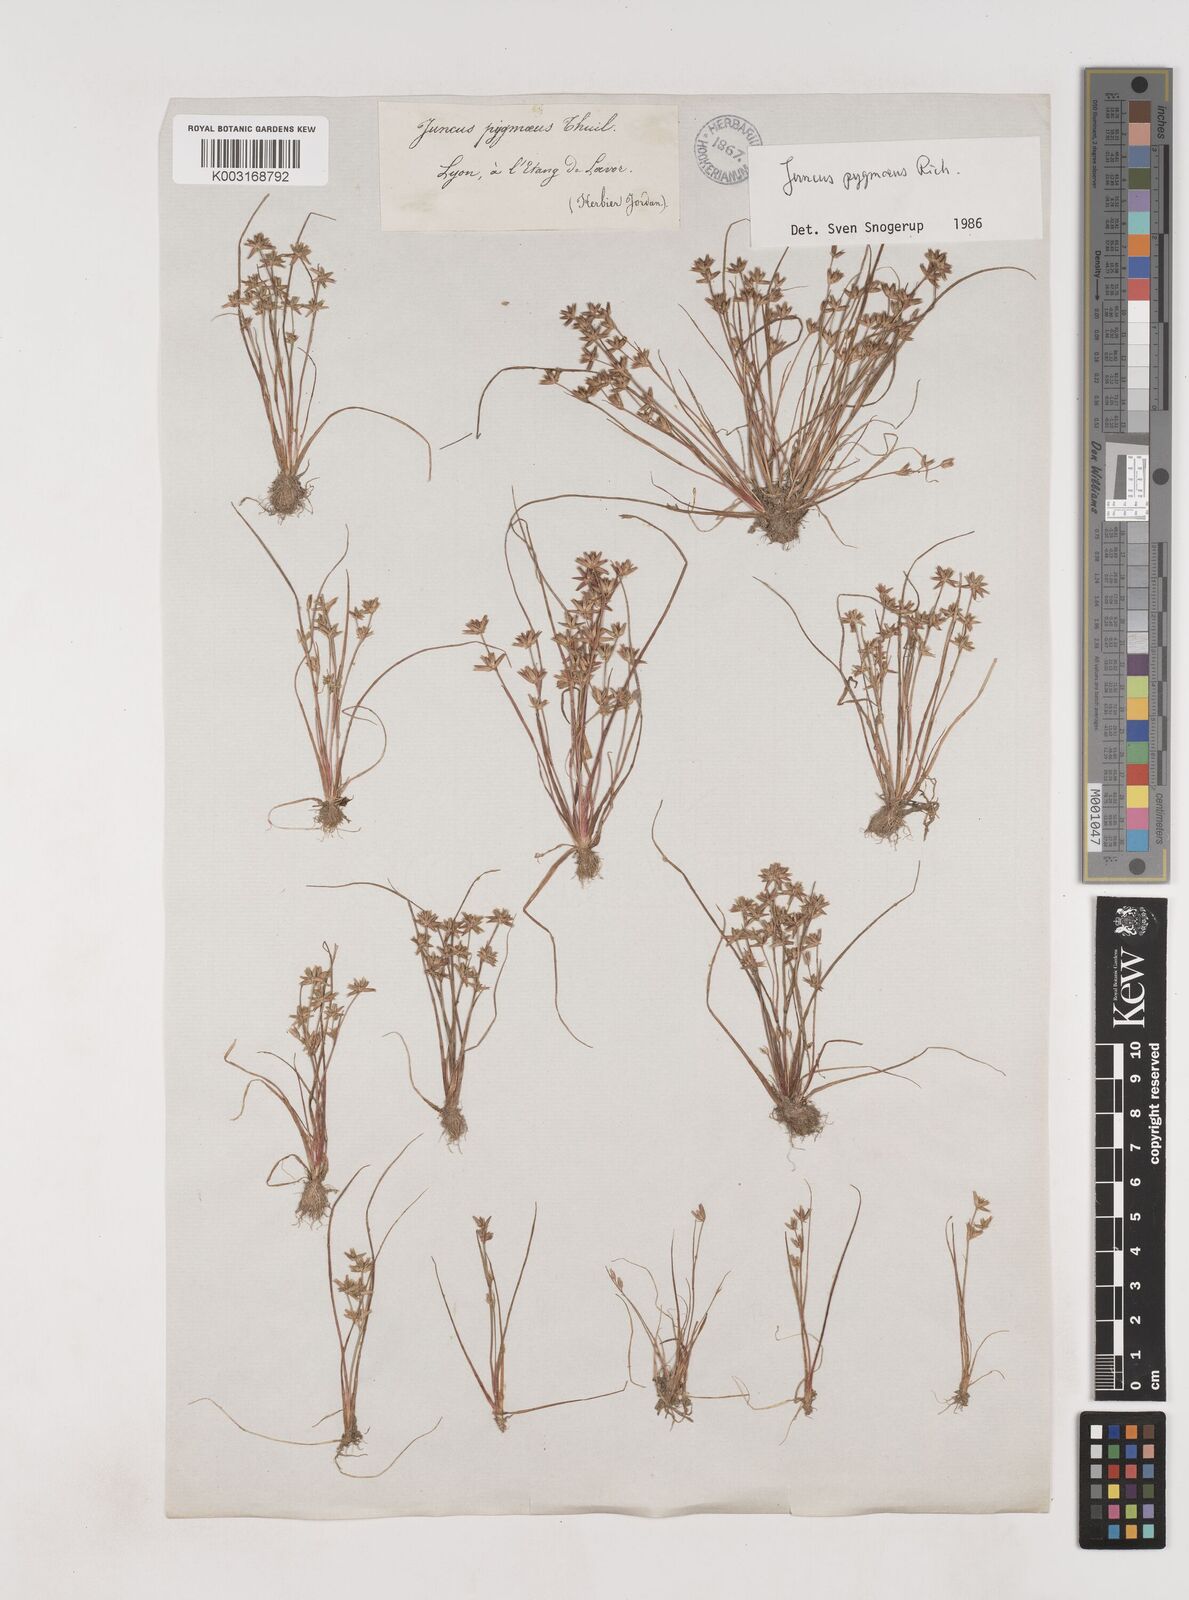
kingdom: Plantae
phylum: Tracheophyta
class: Liliopsida
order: Poales
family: Juncaceae
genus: Juncus
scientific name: Juncus pygmaeus
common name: Pigmy rush
